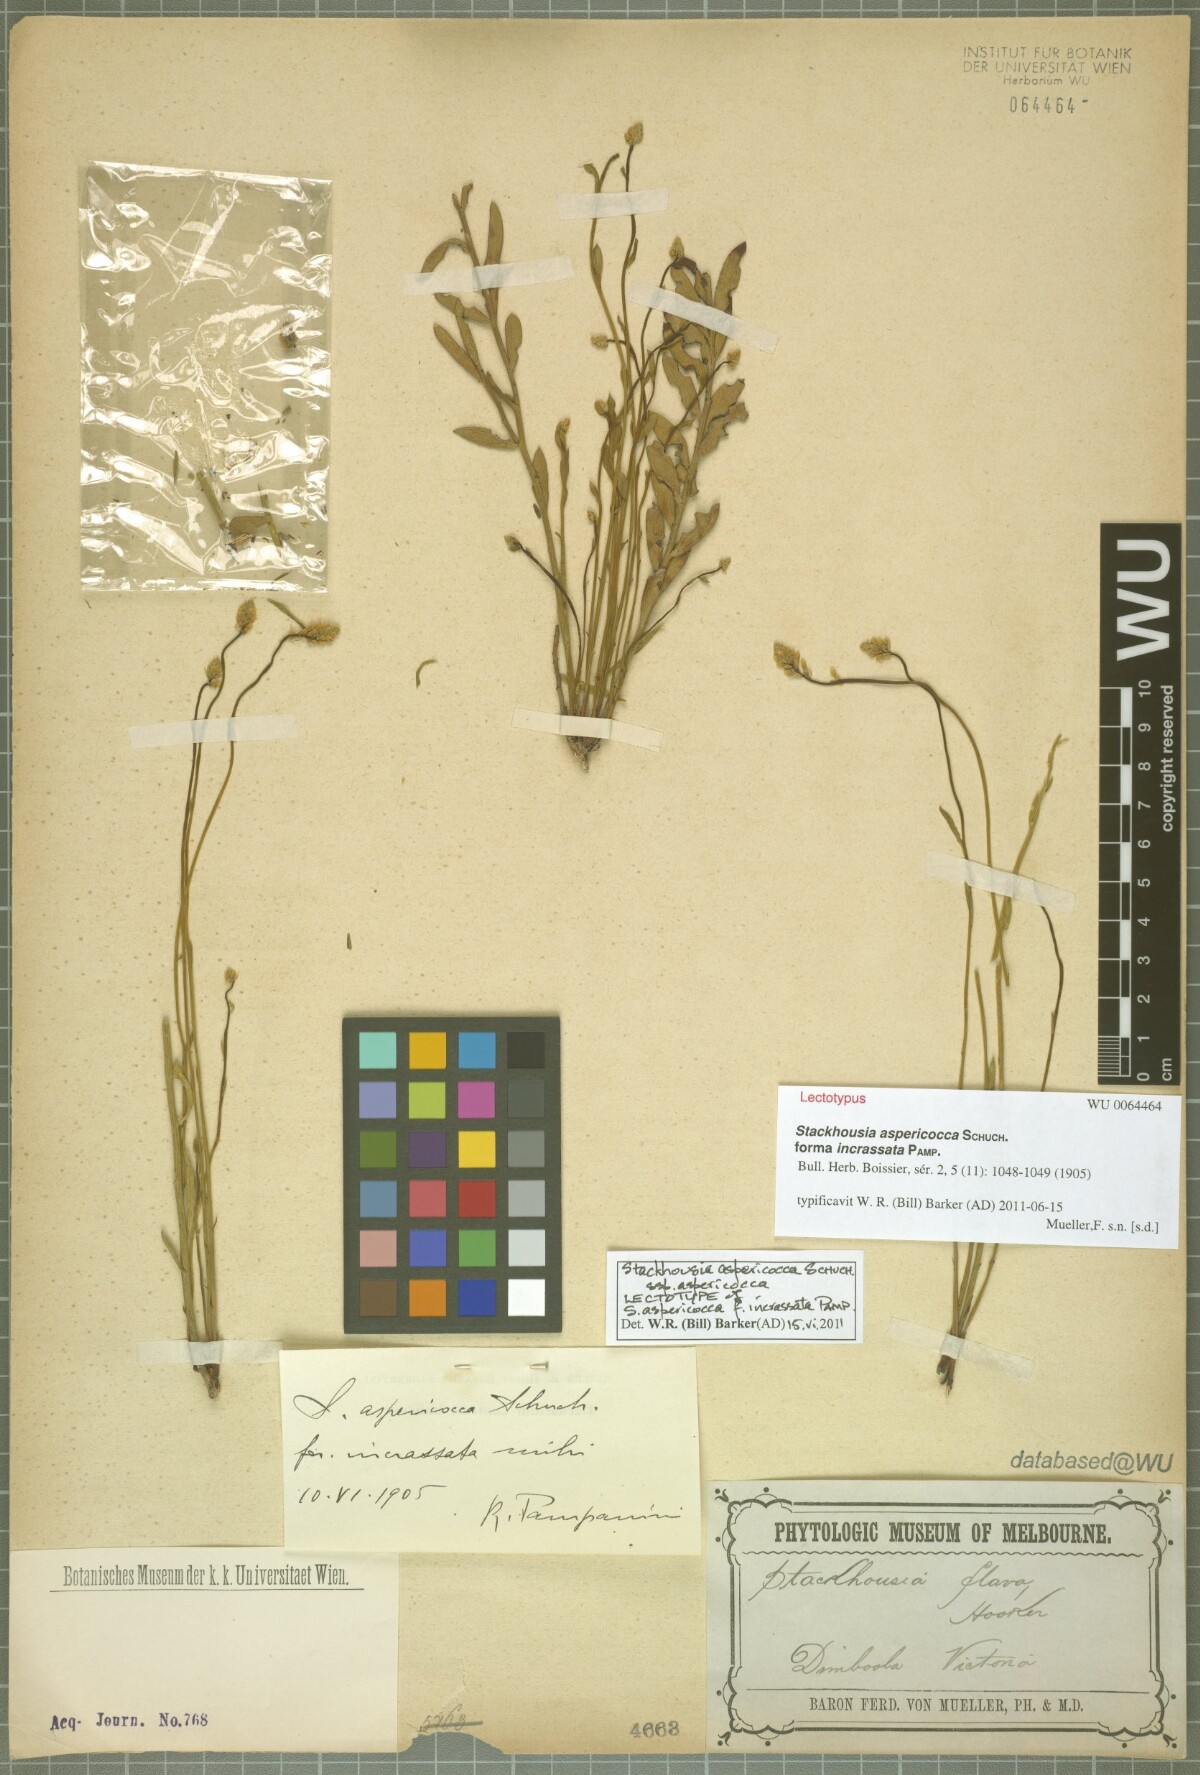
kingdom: Plantae
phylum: Tracheophyta
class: Magnoliopsida
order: Celastrales
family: Celastraceae
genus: Stackhousia
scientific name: Stackhousia monogyna
